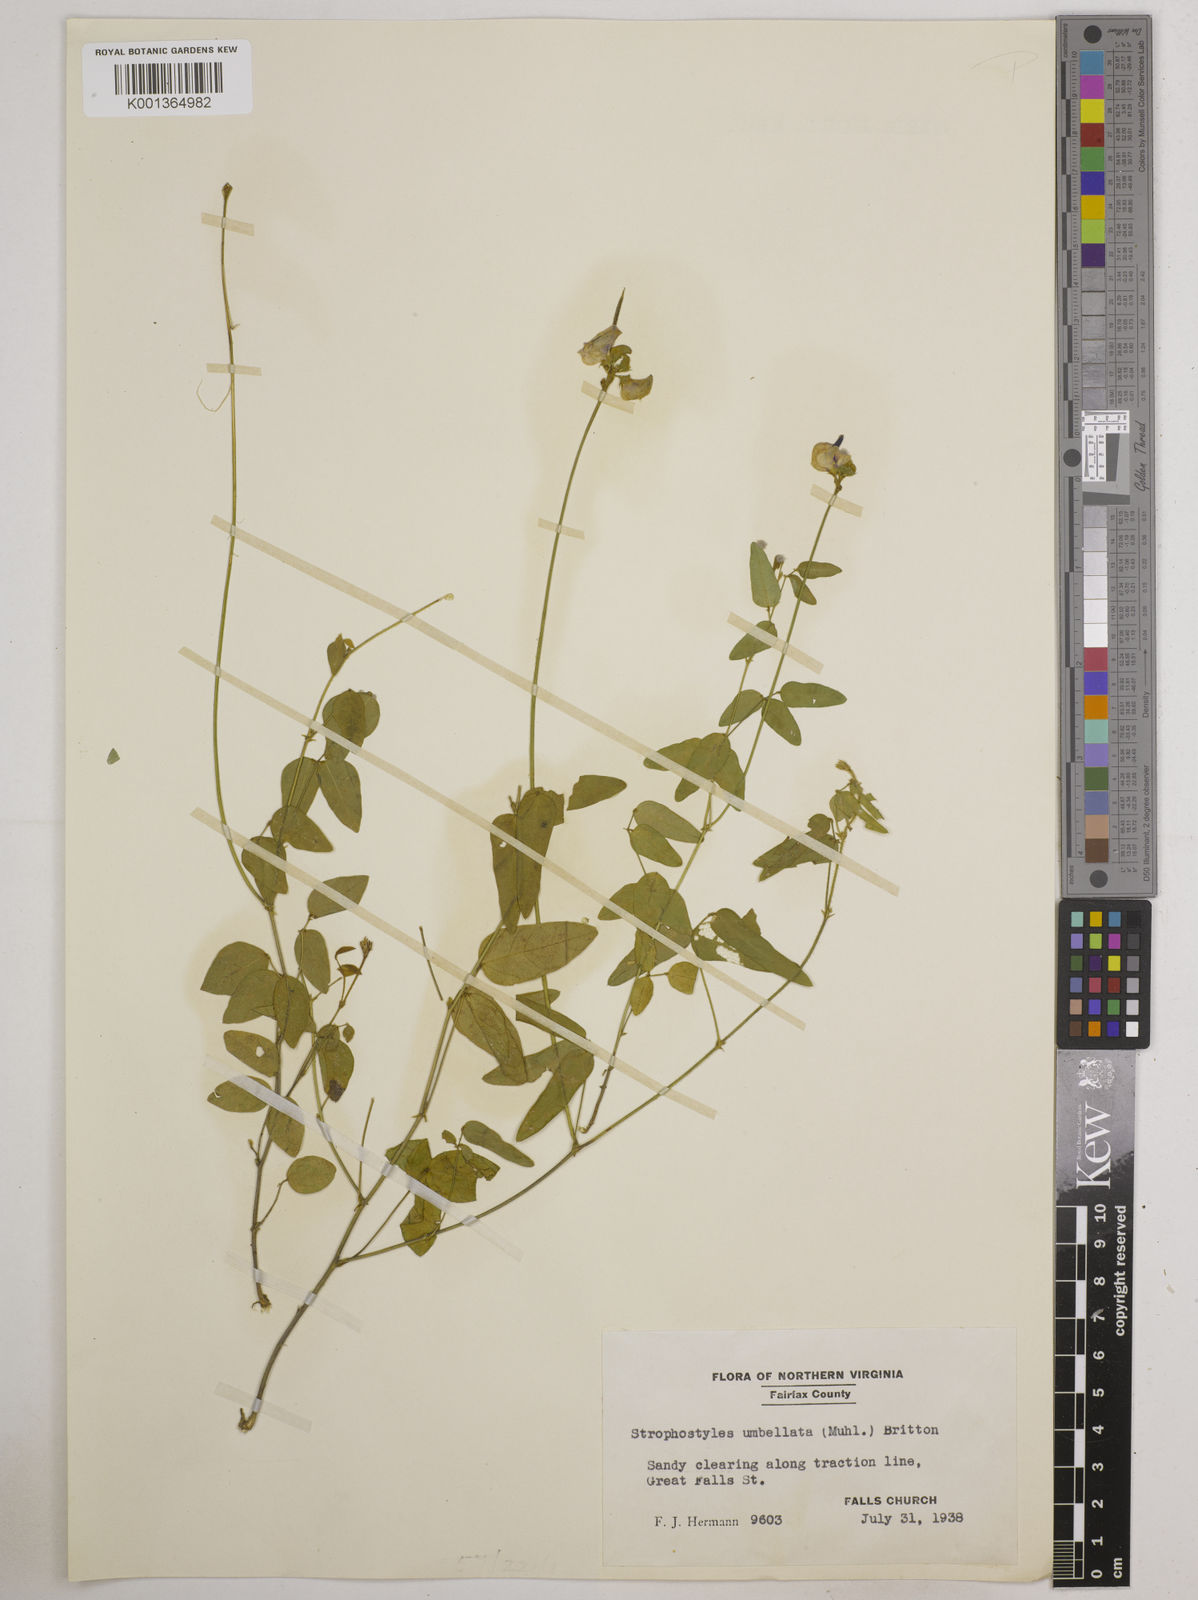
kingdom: Plantae
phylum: Tracheophyta
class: Magnoliopsida
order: Fabales
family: Fabaceae
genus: Strophostyles
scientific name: Strophostyles umbellata
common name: Perennial wild bean
